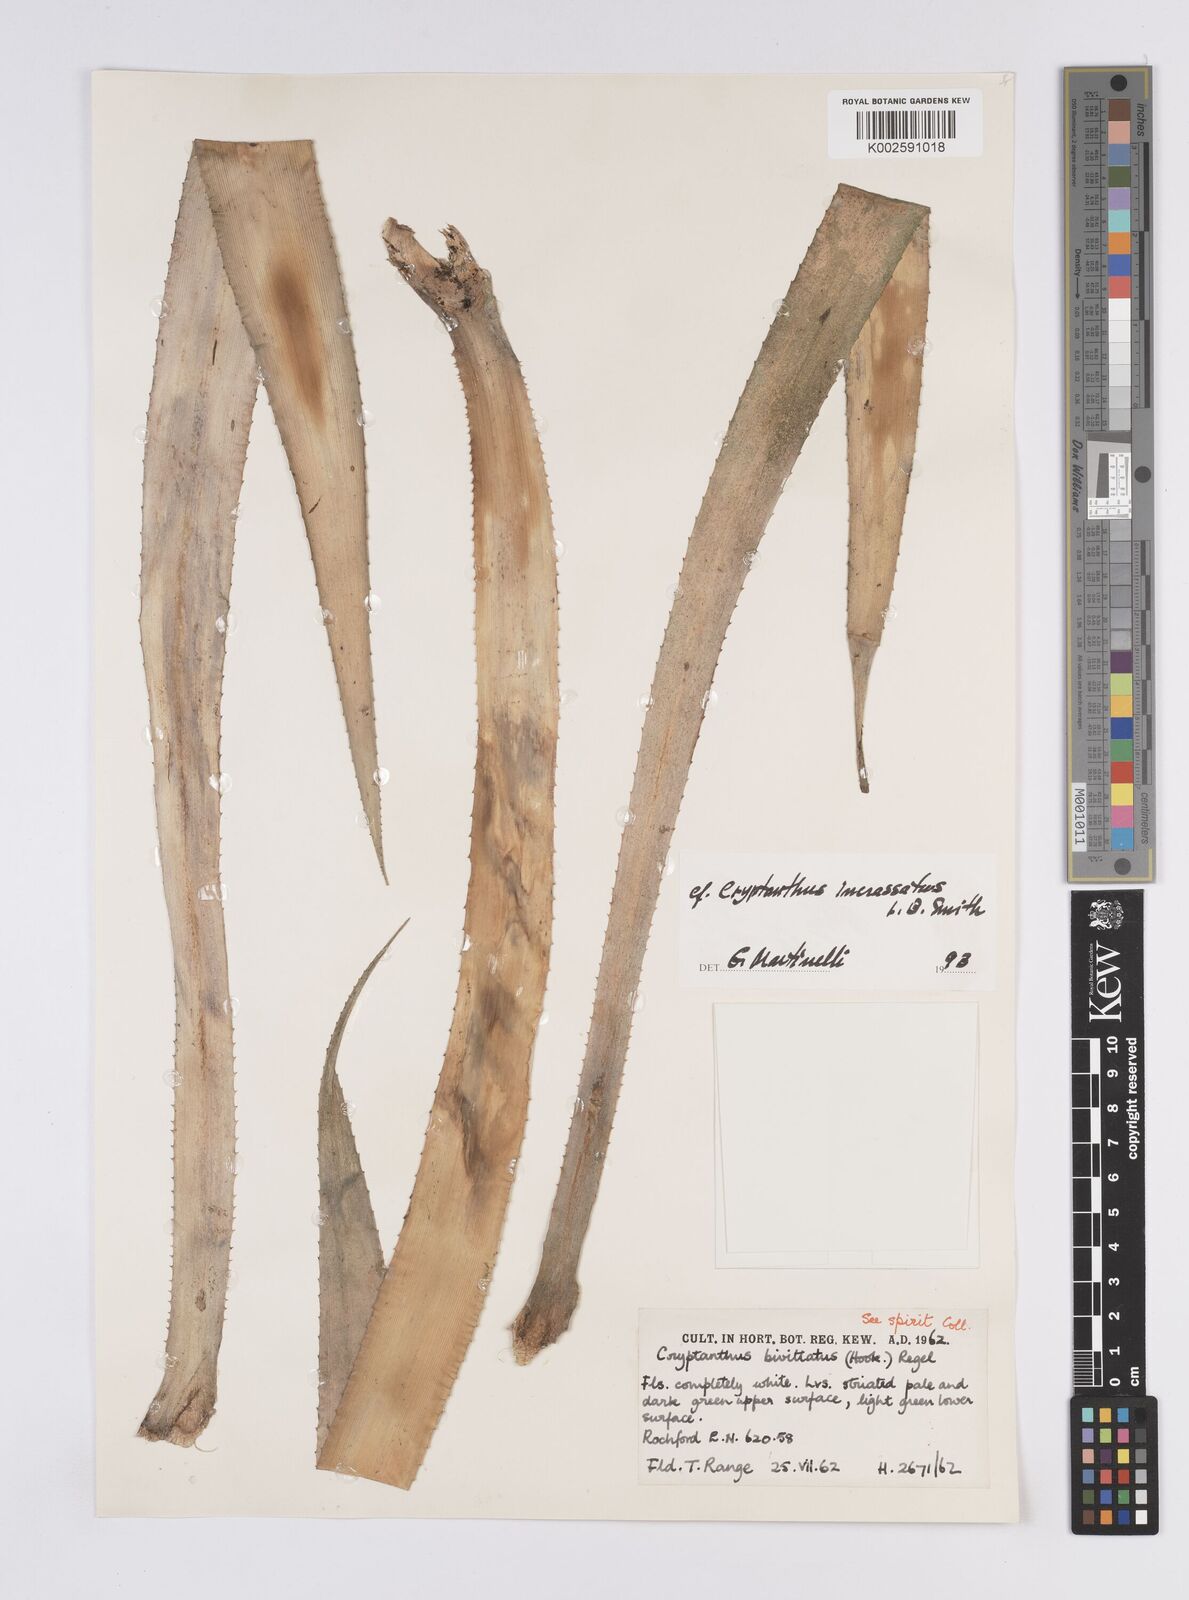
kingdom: Plantae
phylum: Tracheophyta
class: Liliopsida
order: Poales
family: Bromeliaceae
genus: Cryptanthus
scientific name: Cryptanthus incrassatus
